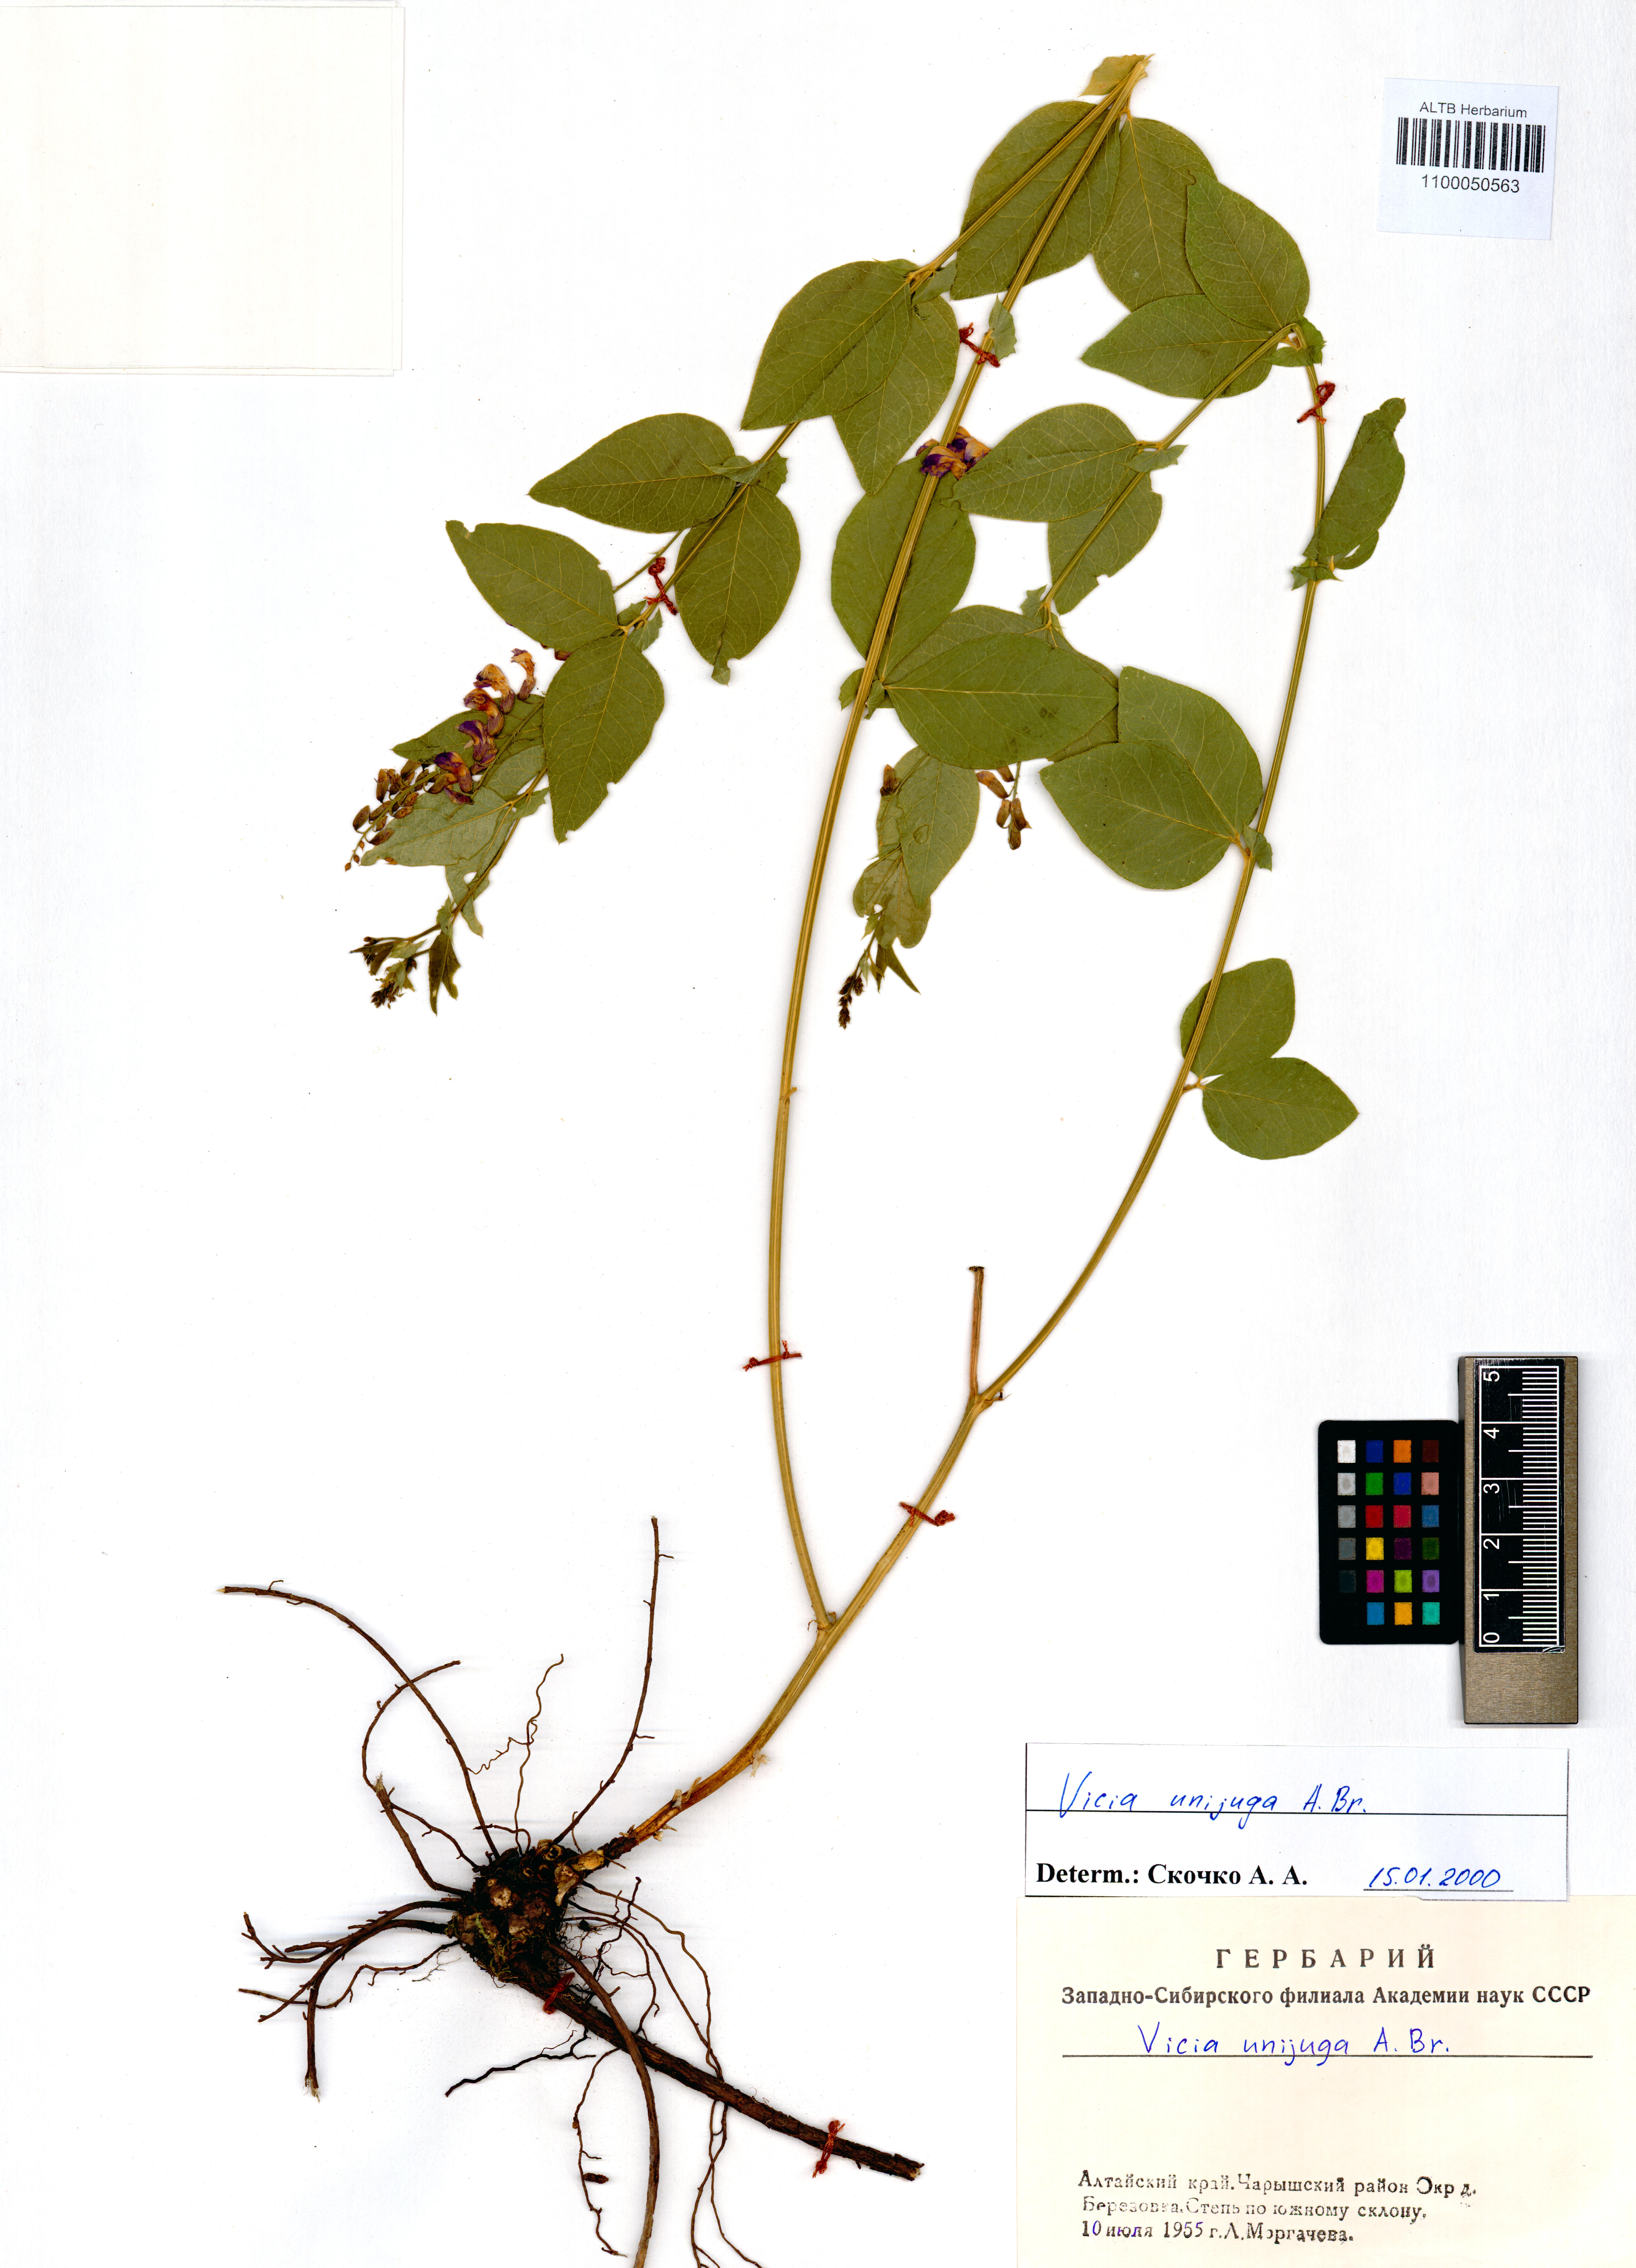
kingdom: Plantae
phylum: Tracheophyta
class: Magnoliopsida
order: Fabales
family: Fabaceae
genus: Vicia
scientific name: Vicia unijuga
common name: Two-leaf vetch
